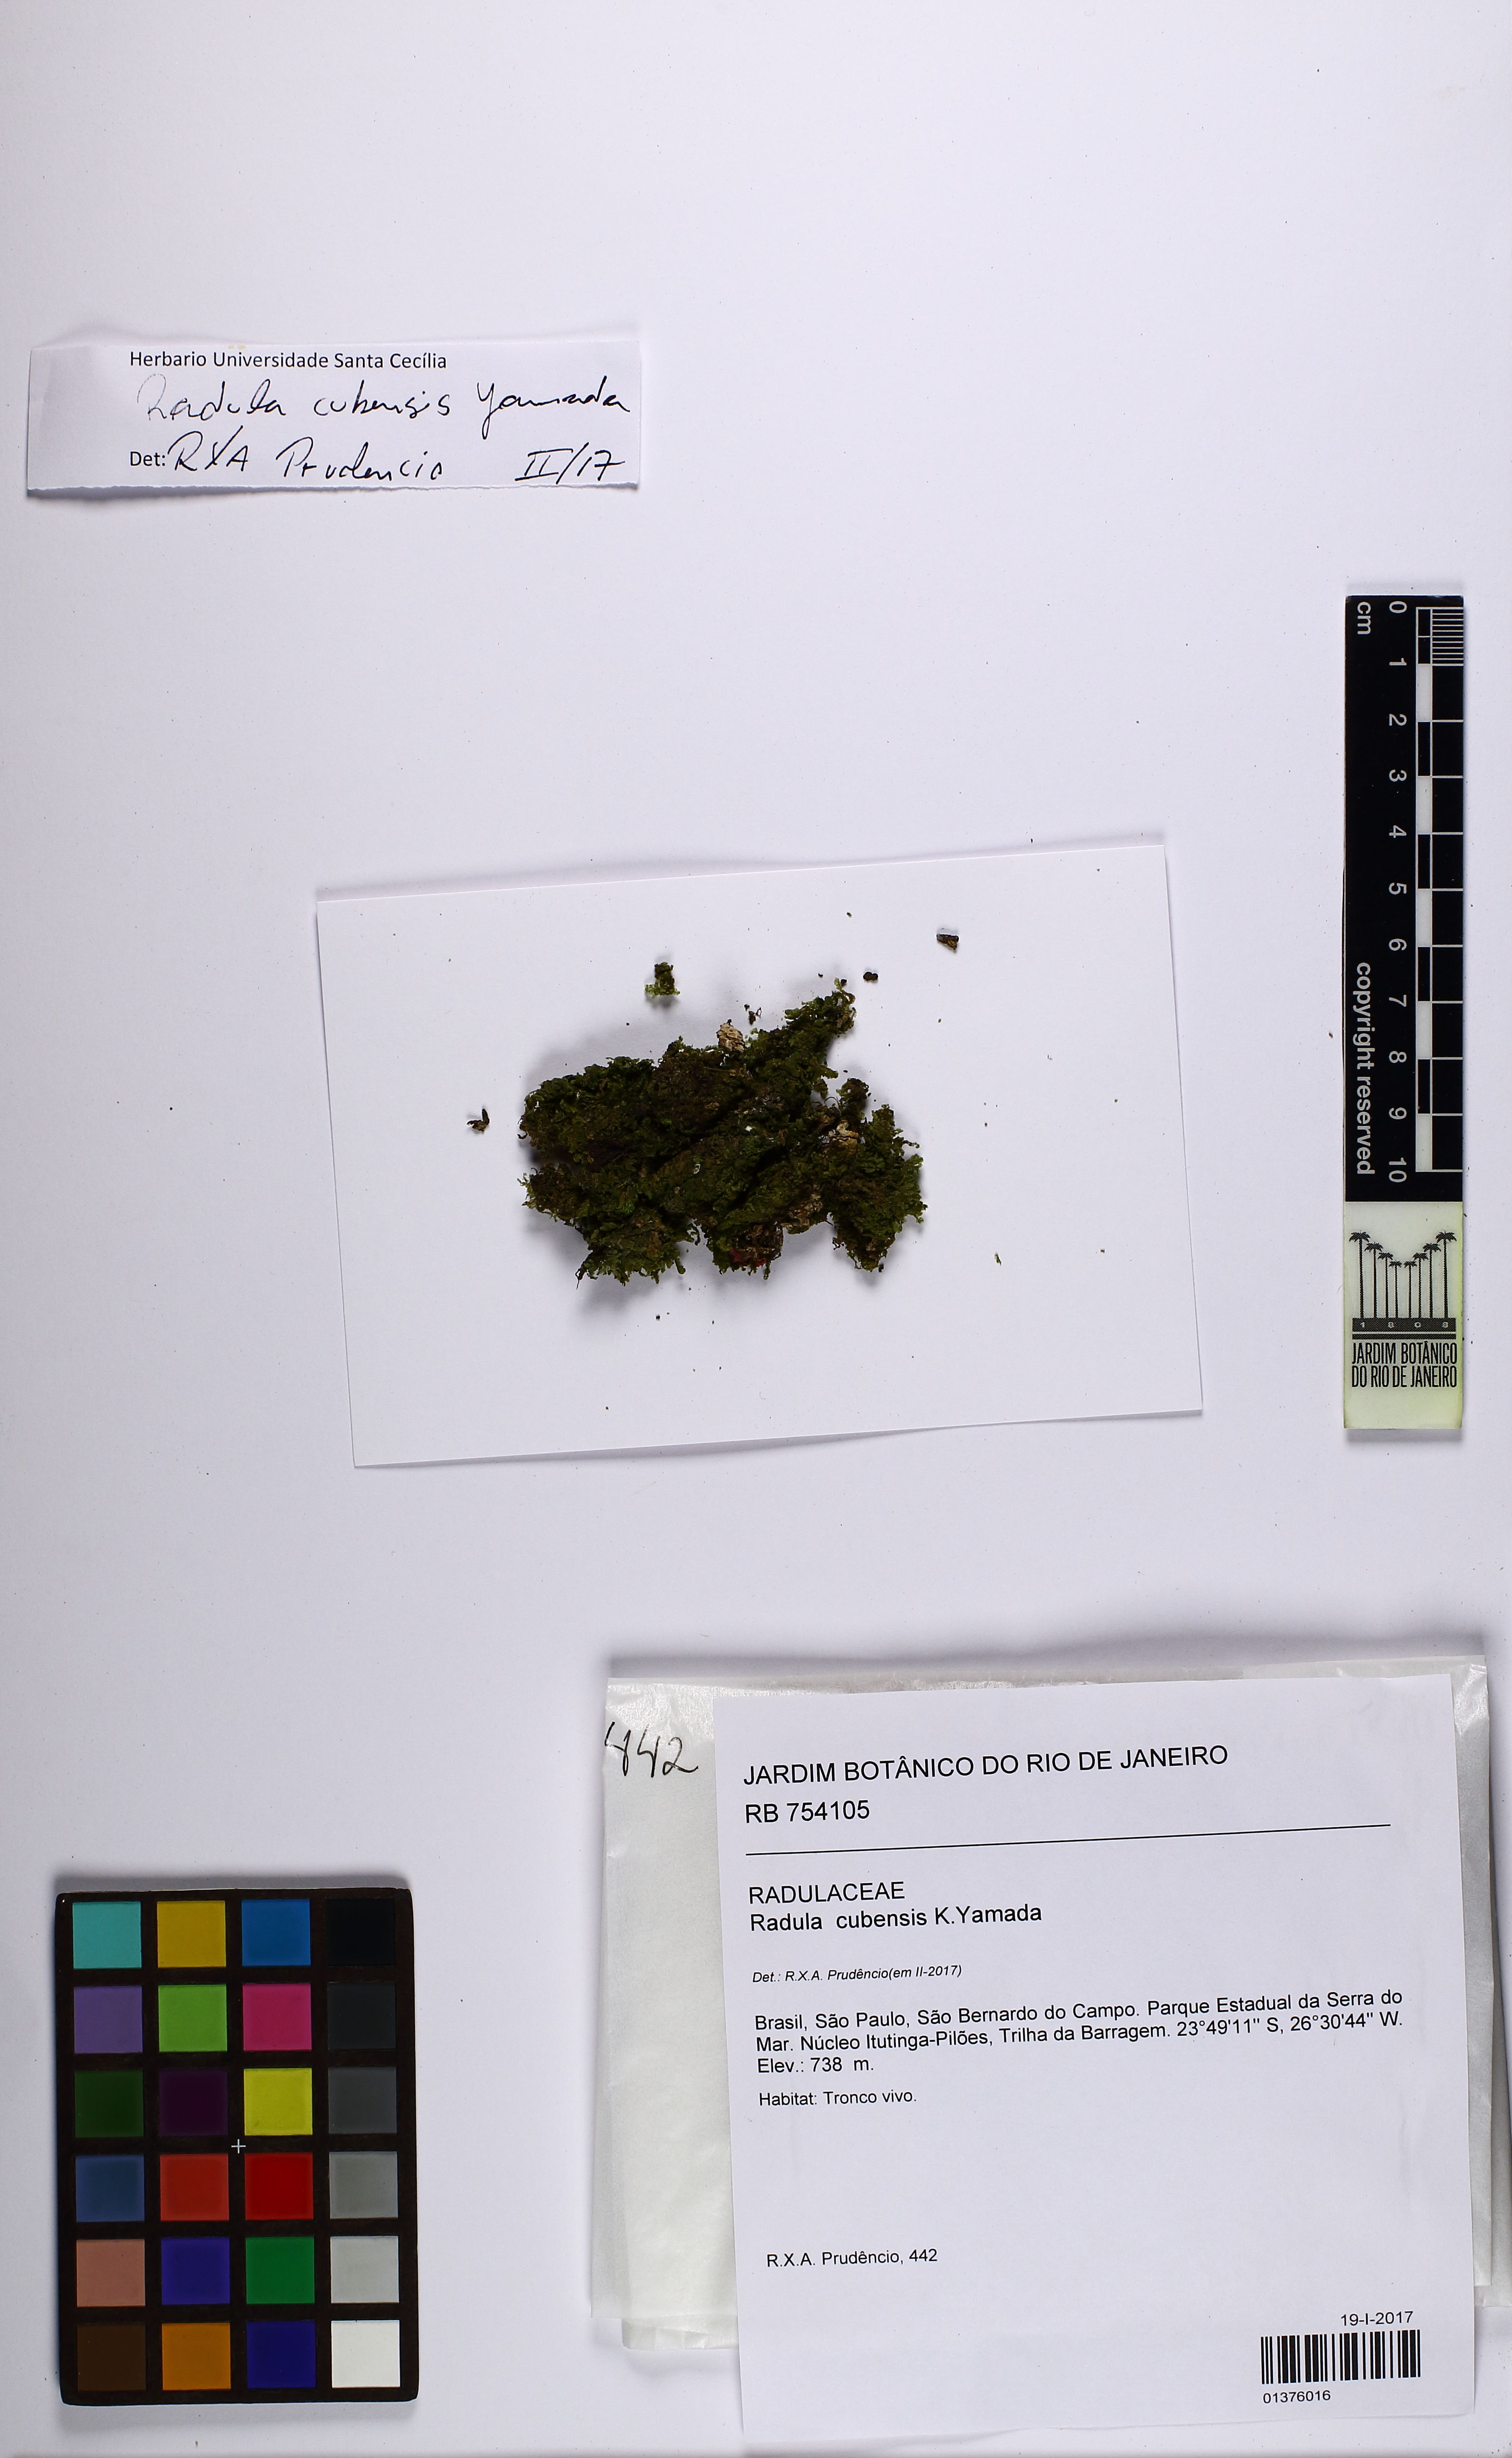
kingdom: Plantae
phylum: Marchantiophyta
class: Jungermanniopsida
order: Porellales
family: Radulaceae
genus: Radula
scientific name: Radula cubensis
